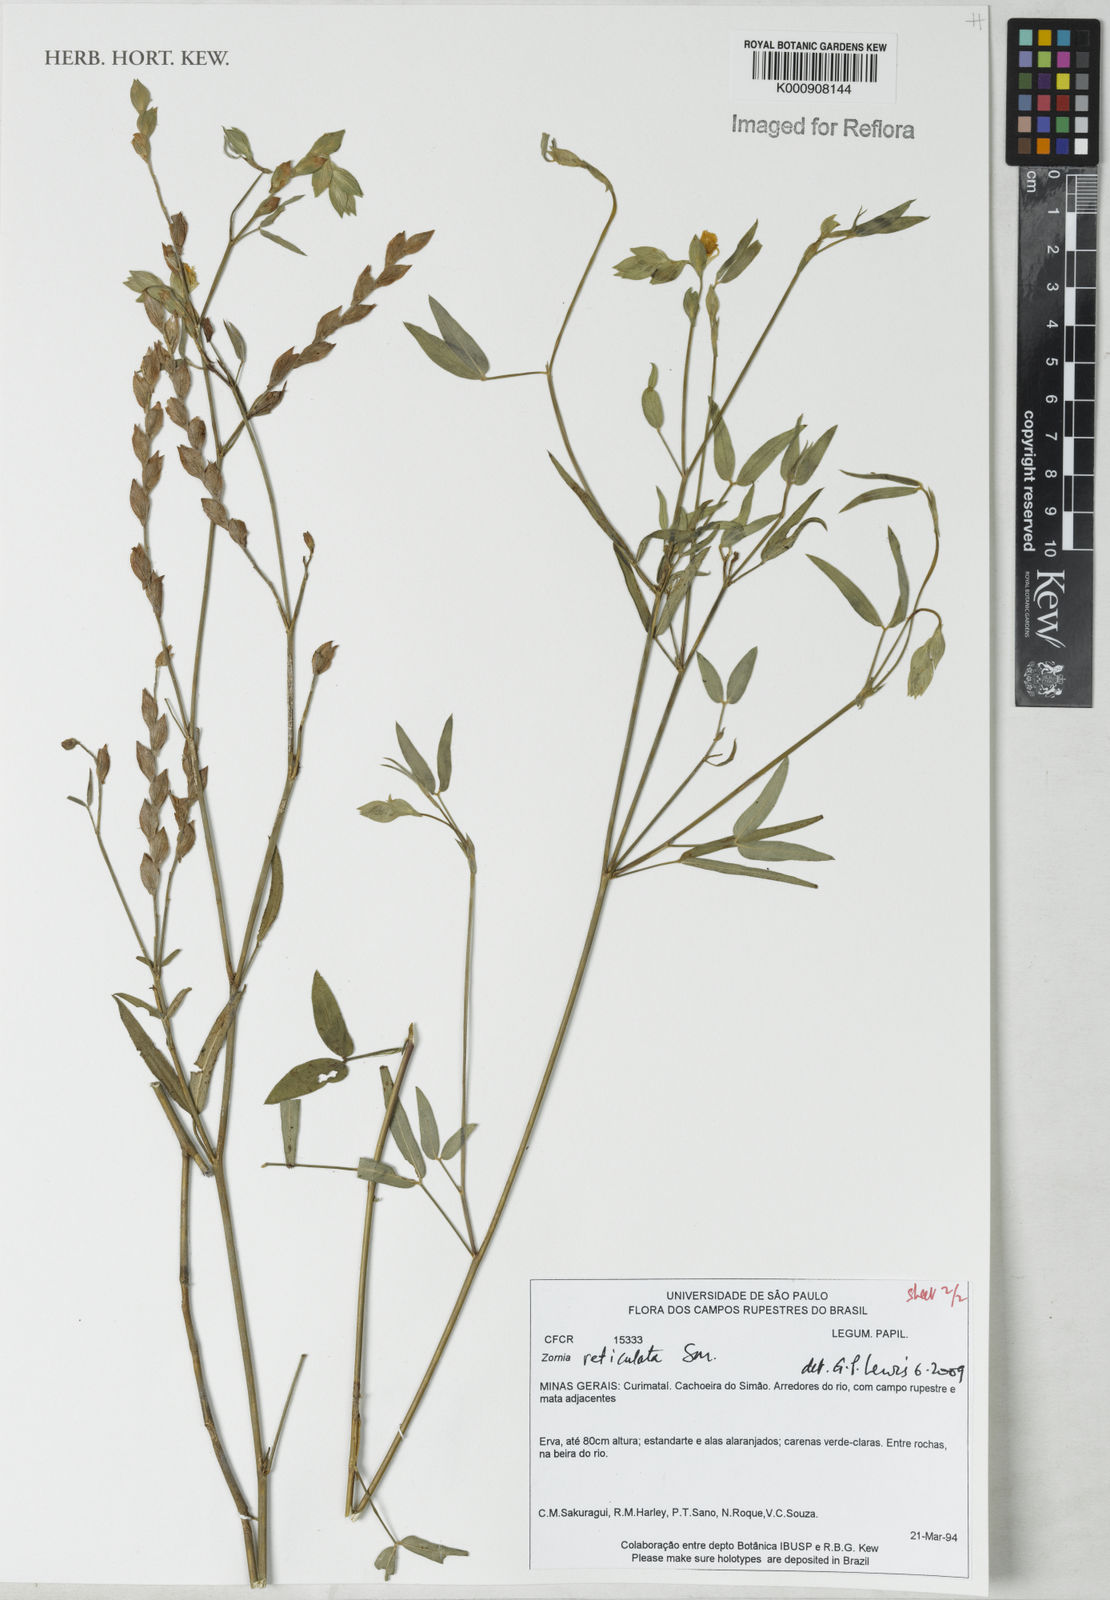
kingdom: Plantae
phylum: Tracheophyta
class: Magnoliopsida
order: Fabales
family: Fabaceae
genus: Zornia
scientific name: Zornia reticulata
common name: Reticulate viperina
